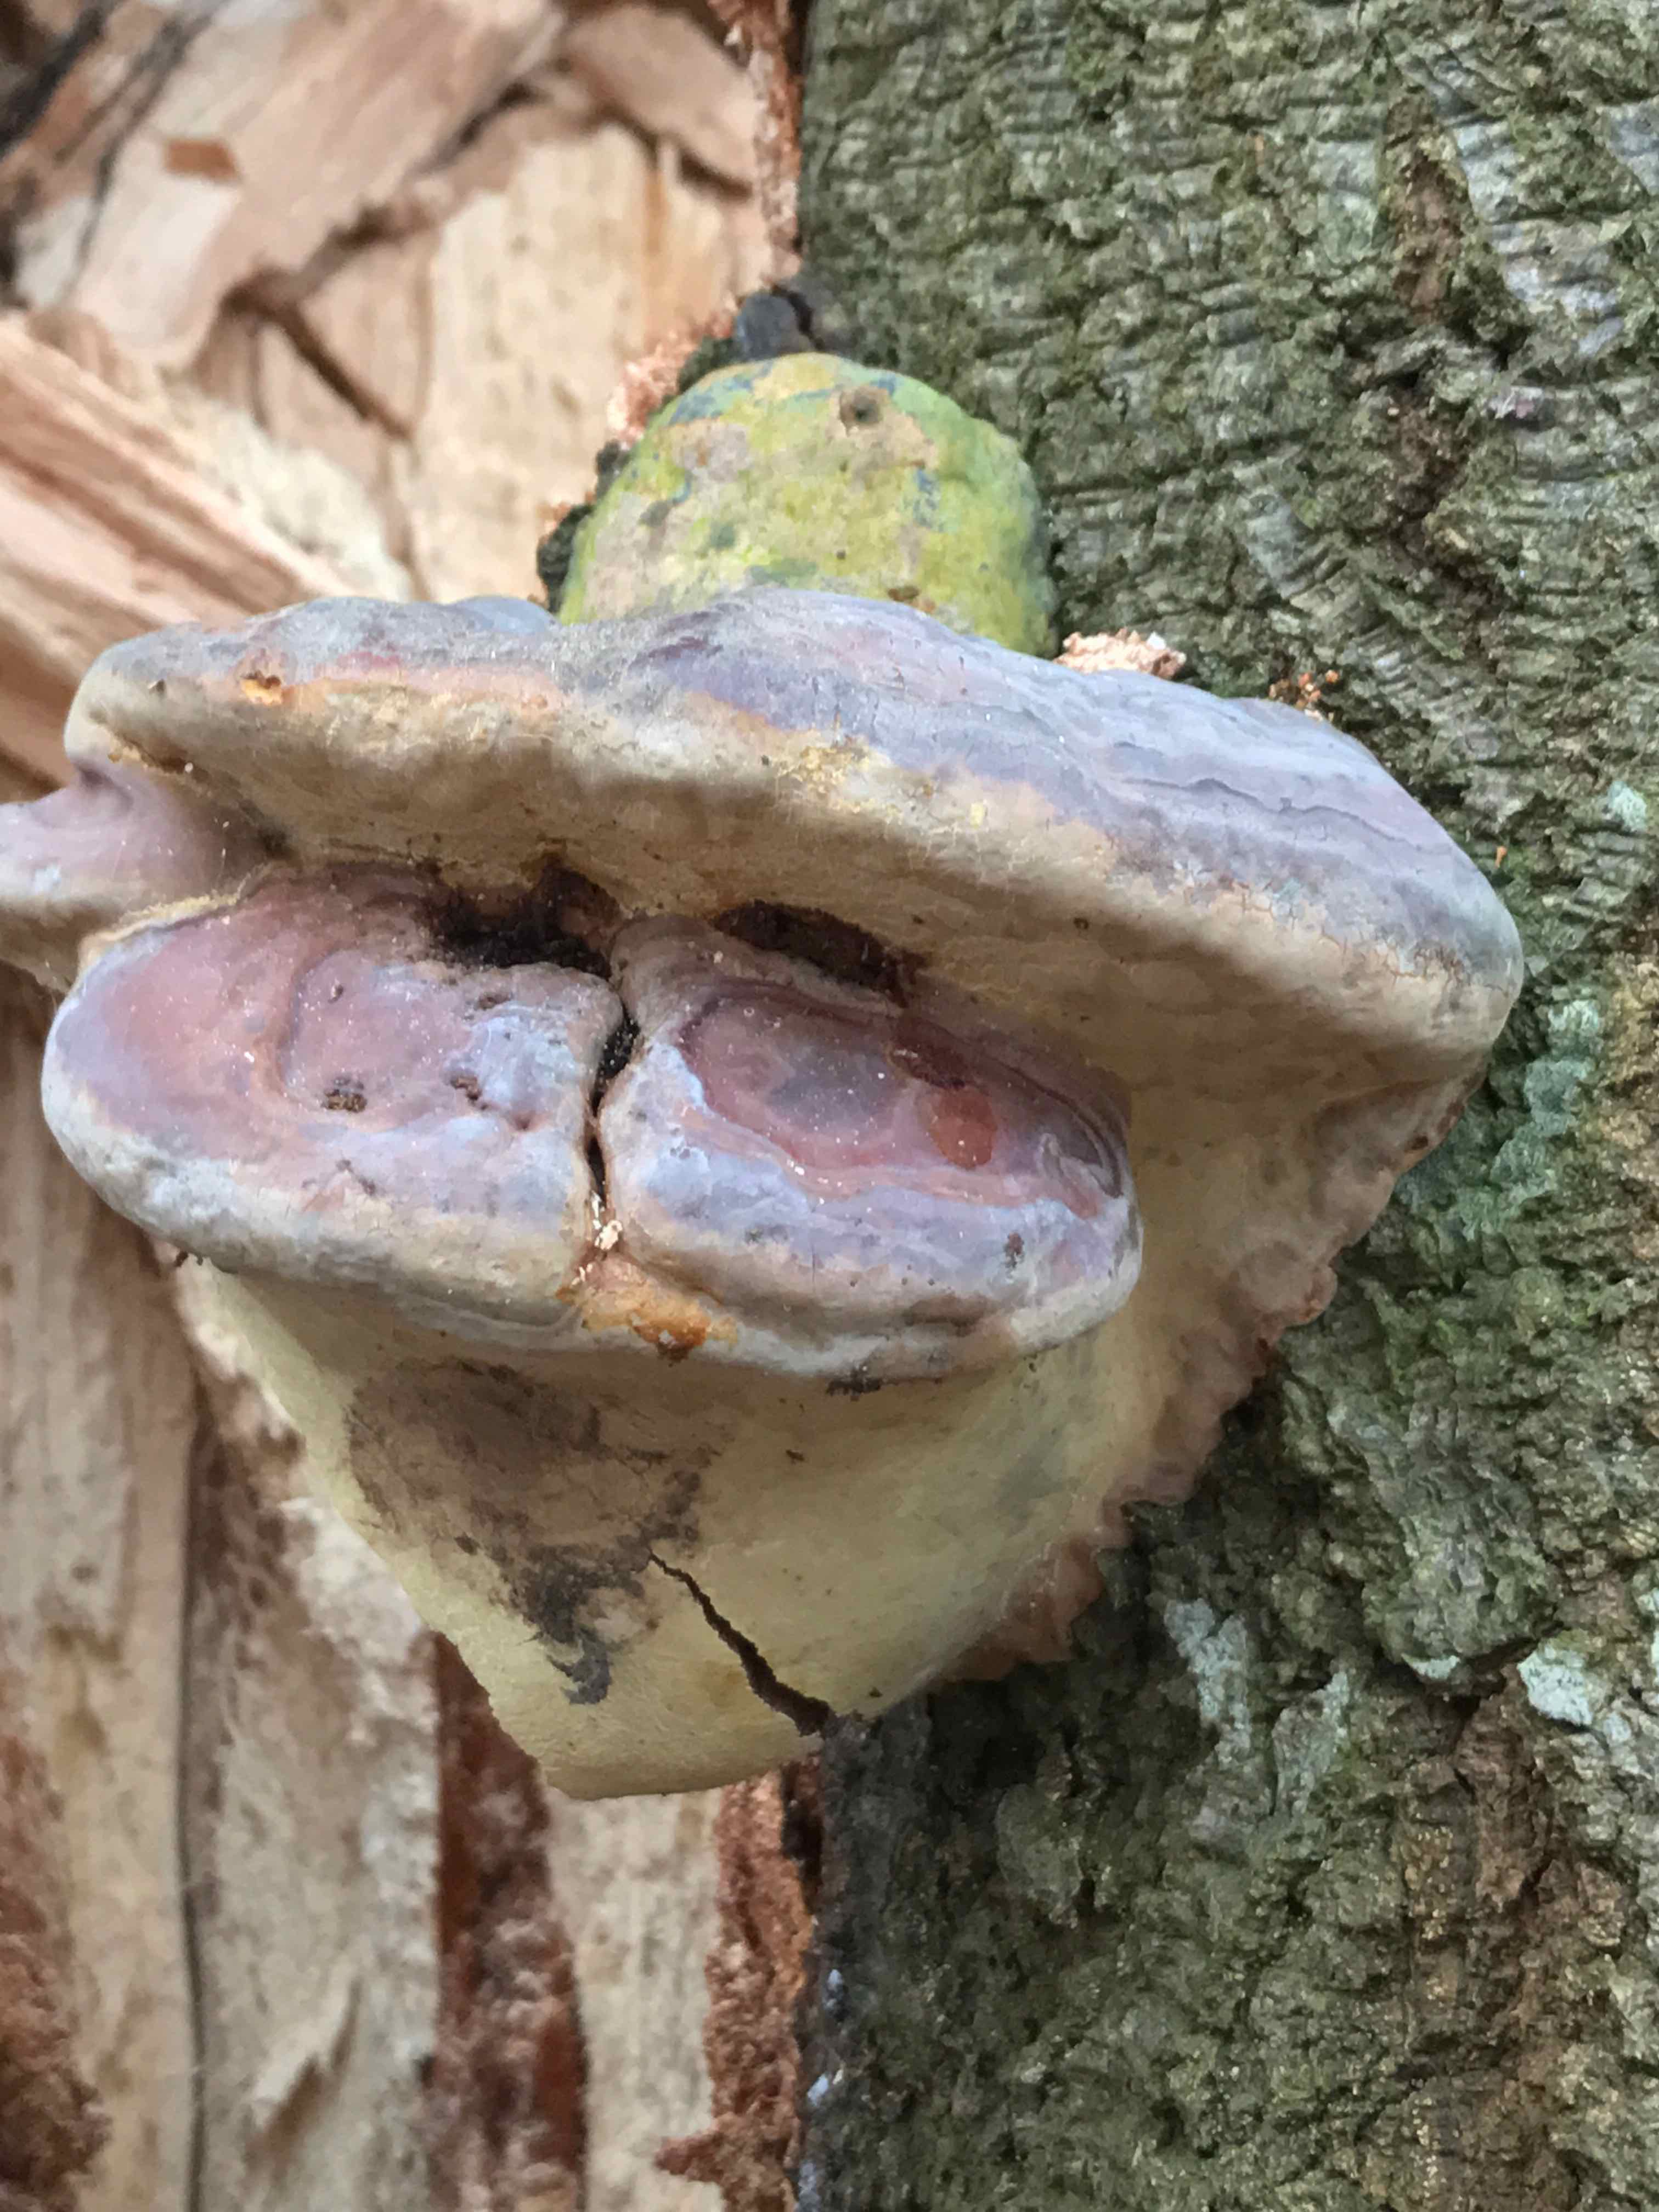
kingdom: Fungi
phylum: Basidiomycota
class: Agaricomycetes
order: Polyporales
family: Polyporaceae
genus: Ganoderma
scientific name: Ganoderma pfeifferi
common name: kobberrød lakporesvamp
